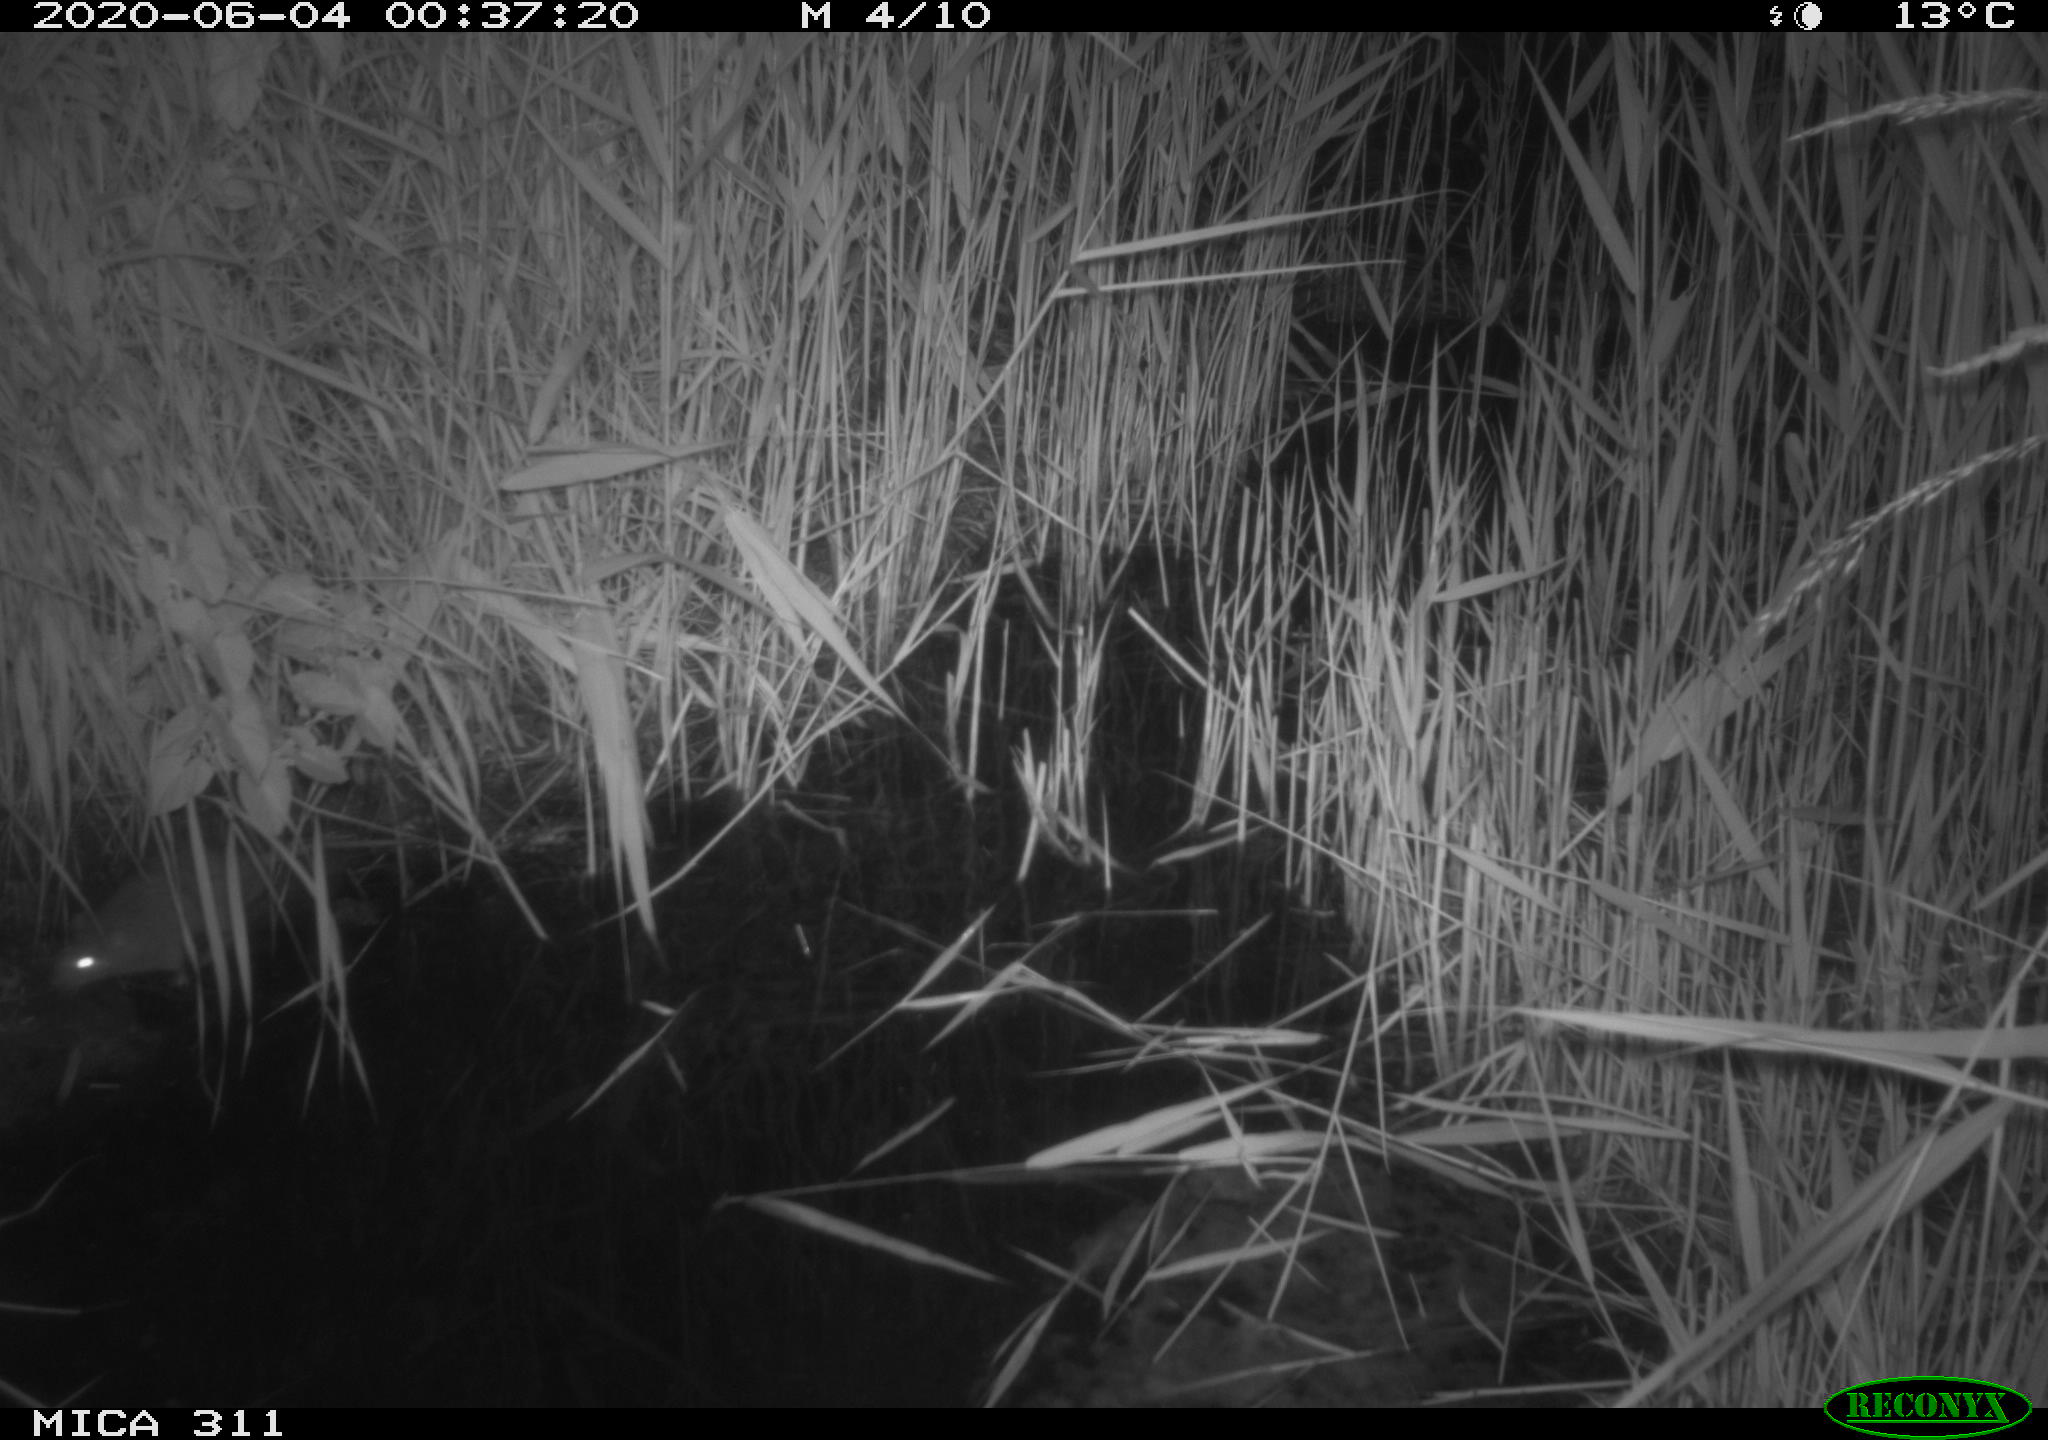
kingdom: Animalia
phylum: Chordata
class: Mammalia
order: Rodentia
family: Muridae
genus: Rattus
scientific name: Rattus norvegicus
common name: Brown rat
